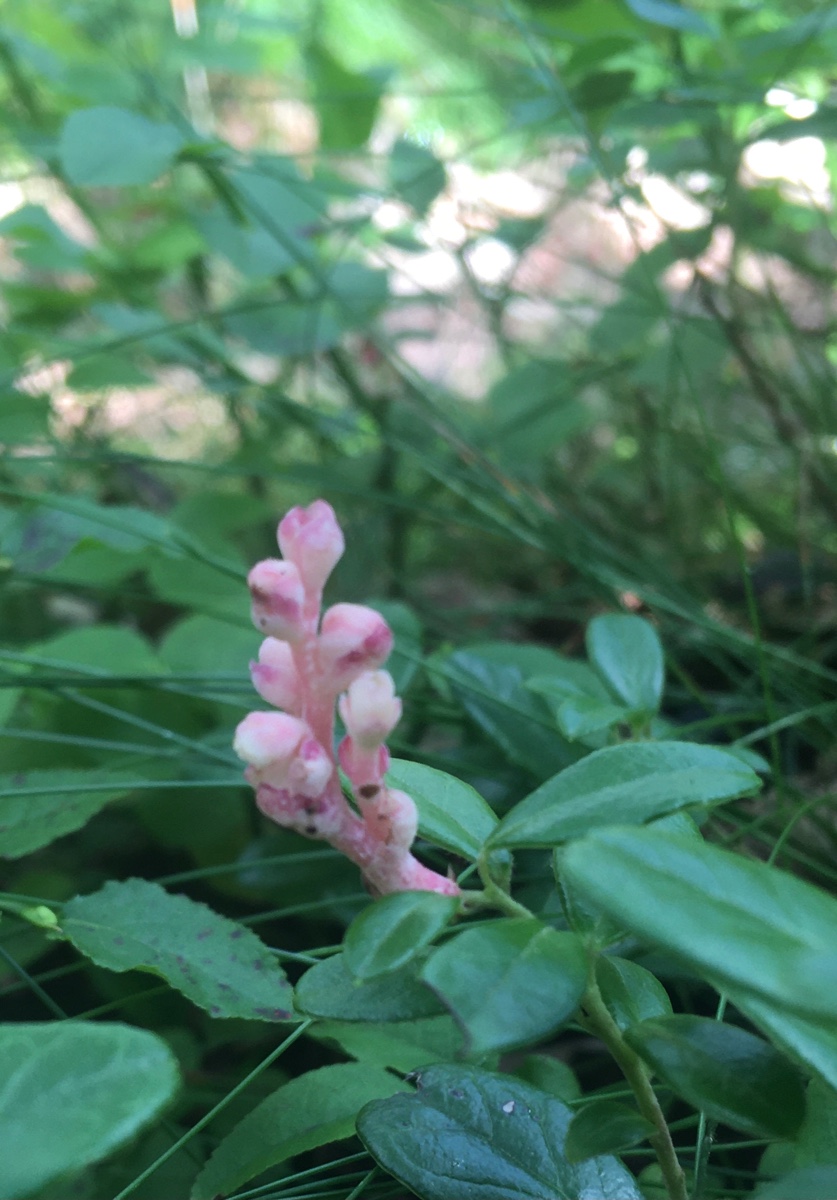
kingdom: Fungi
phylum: Basidiomycota
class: Exobasidiomycetes
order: Exobasidiales
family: Exobasidiaceae
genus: Exobasidium
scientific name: Exobasidium vaccinii
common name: tyttebærblad-bøllesvamp
